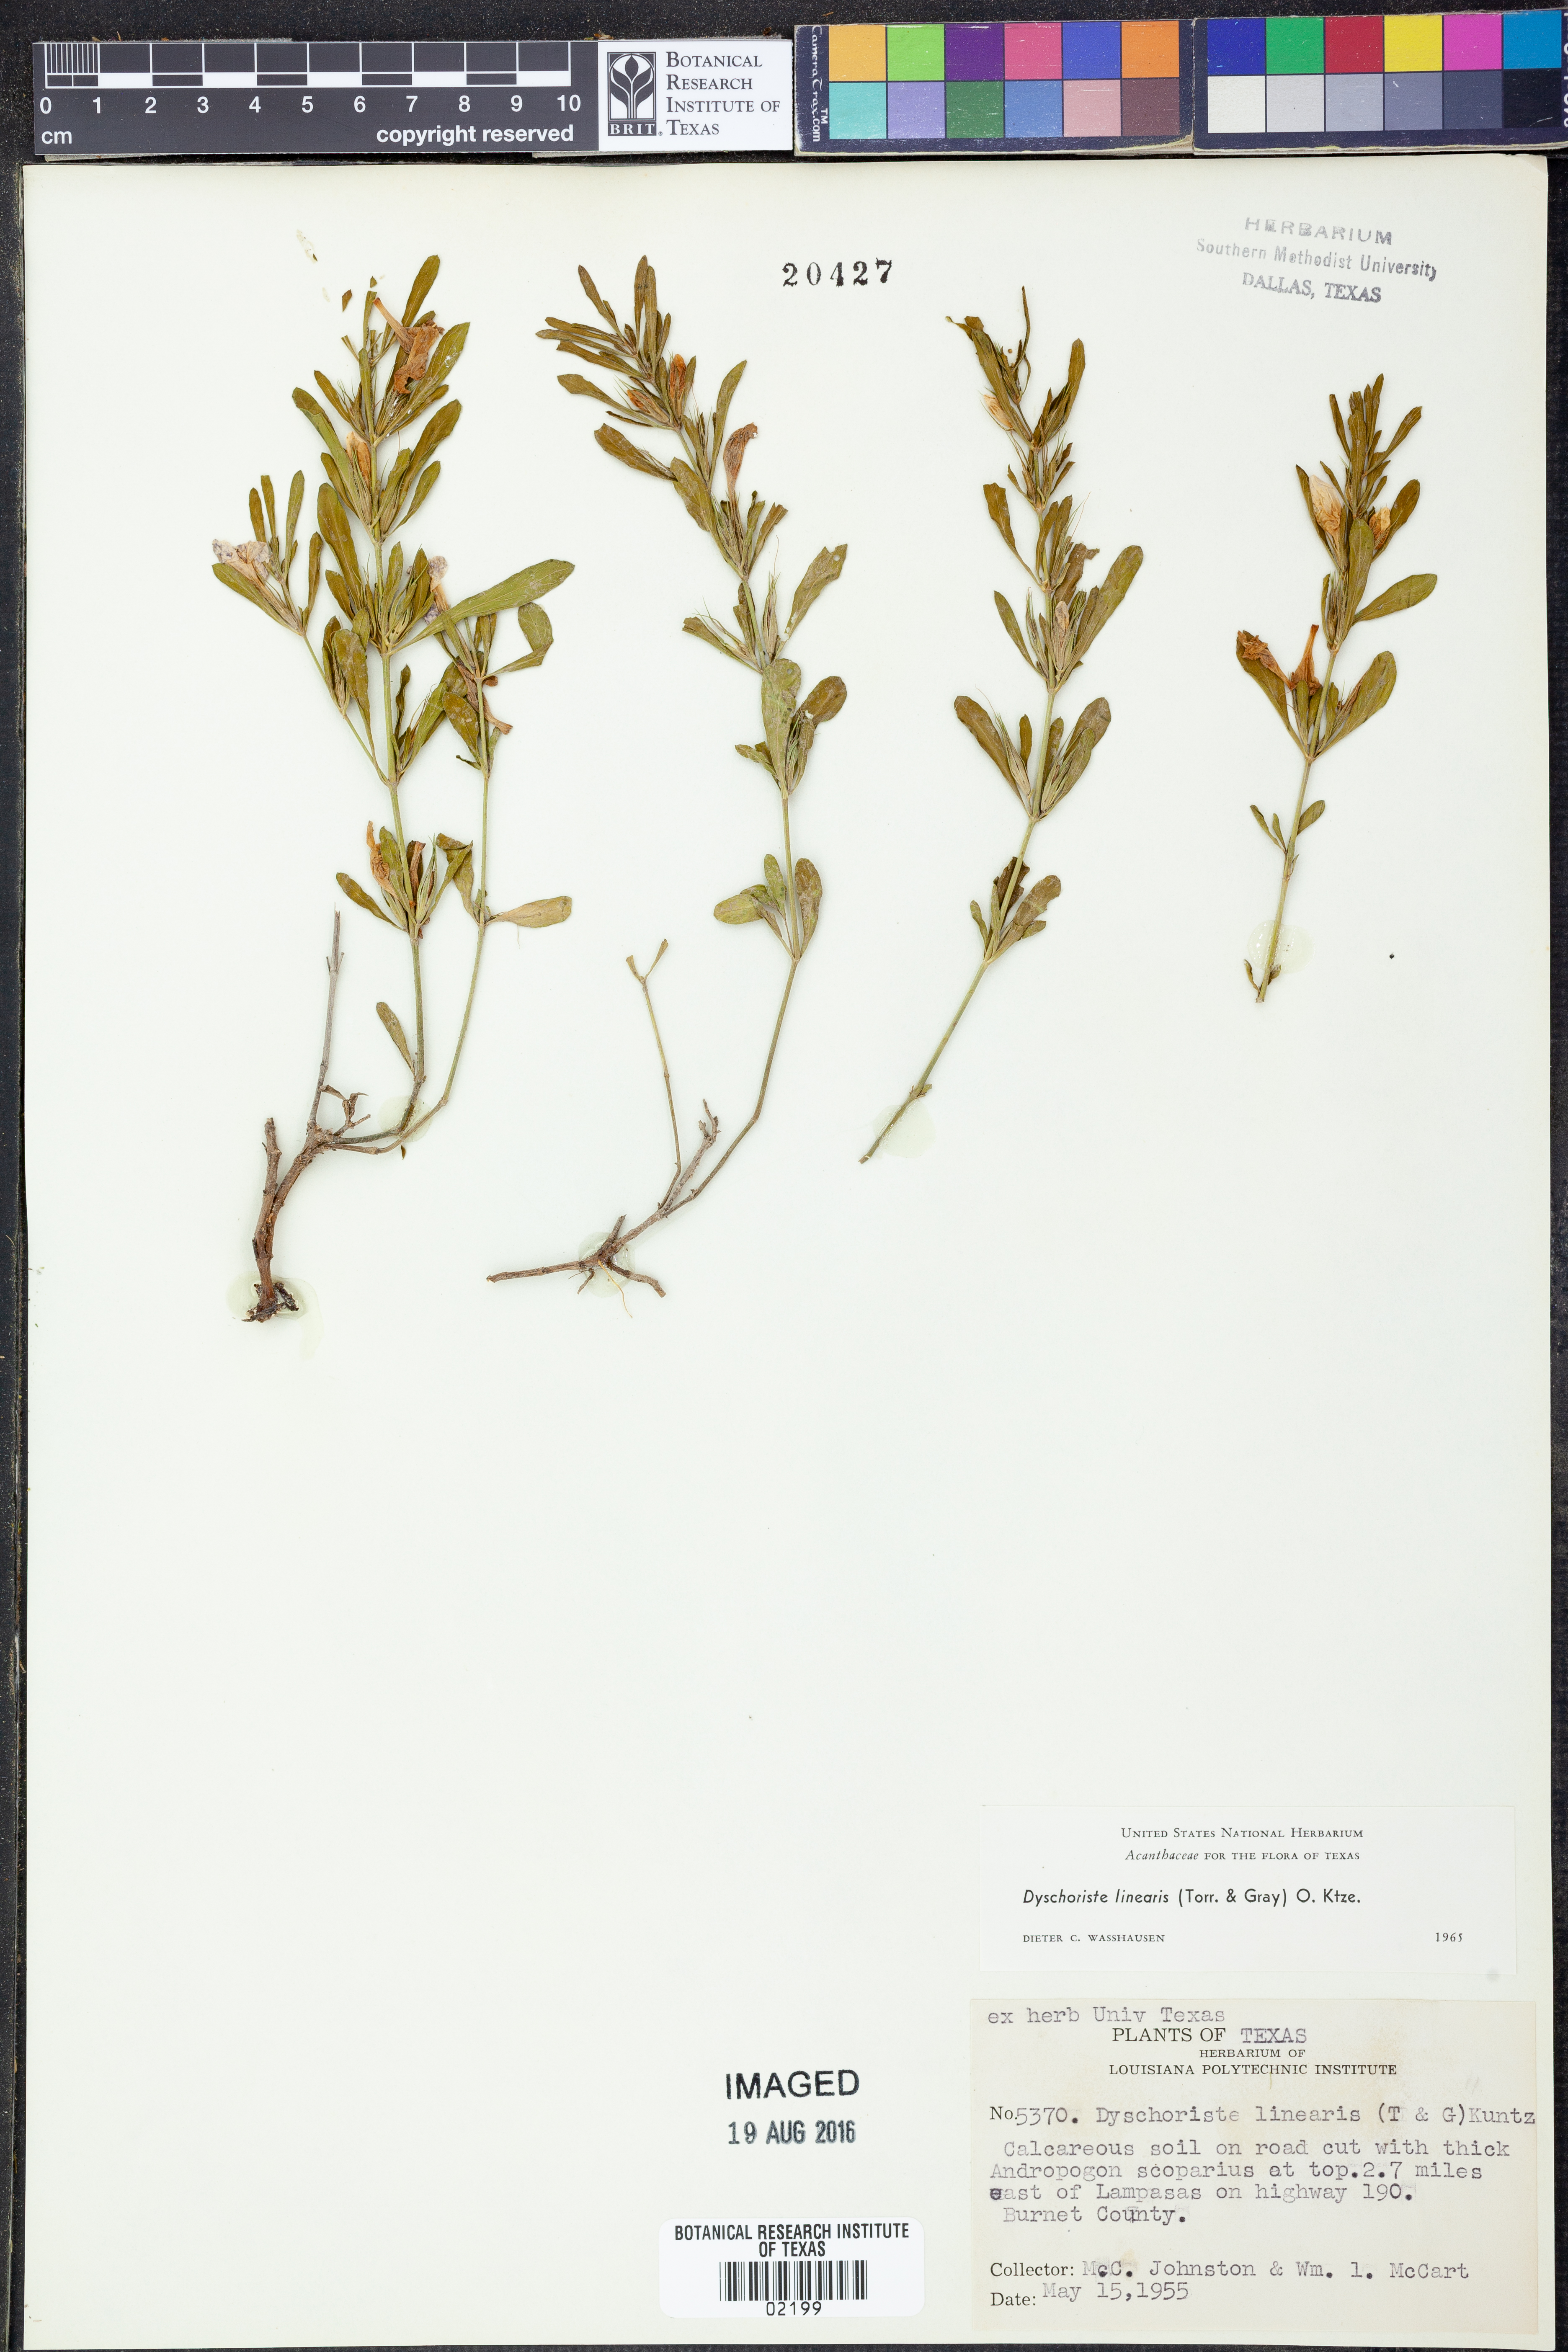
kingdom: Plantae
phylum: Tracheophyta
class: Magnoliopsida
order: Lamiales
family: Acanthaceae
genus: Dyschoriste
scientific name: Dyschoriste linearis
